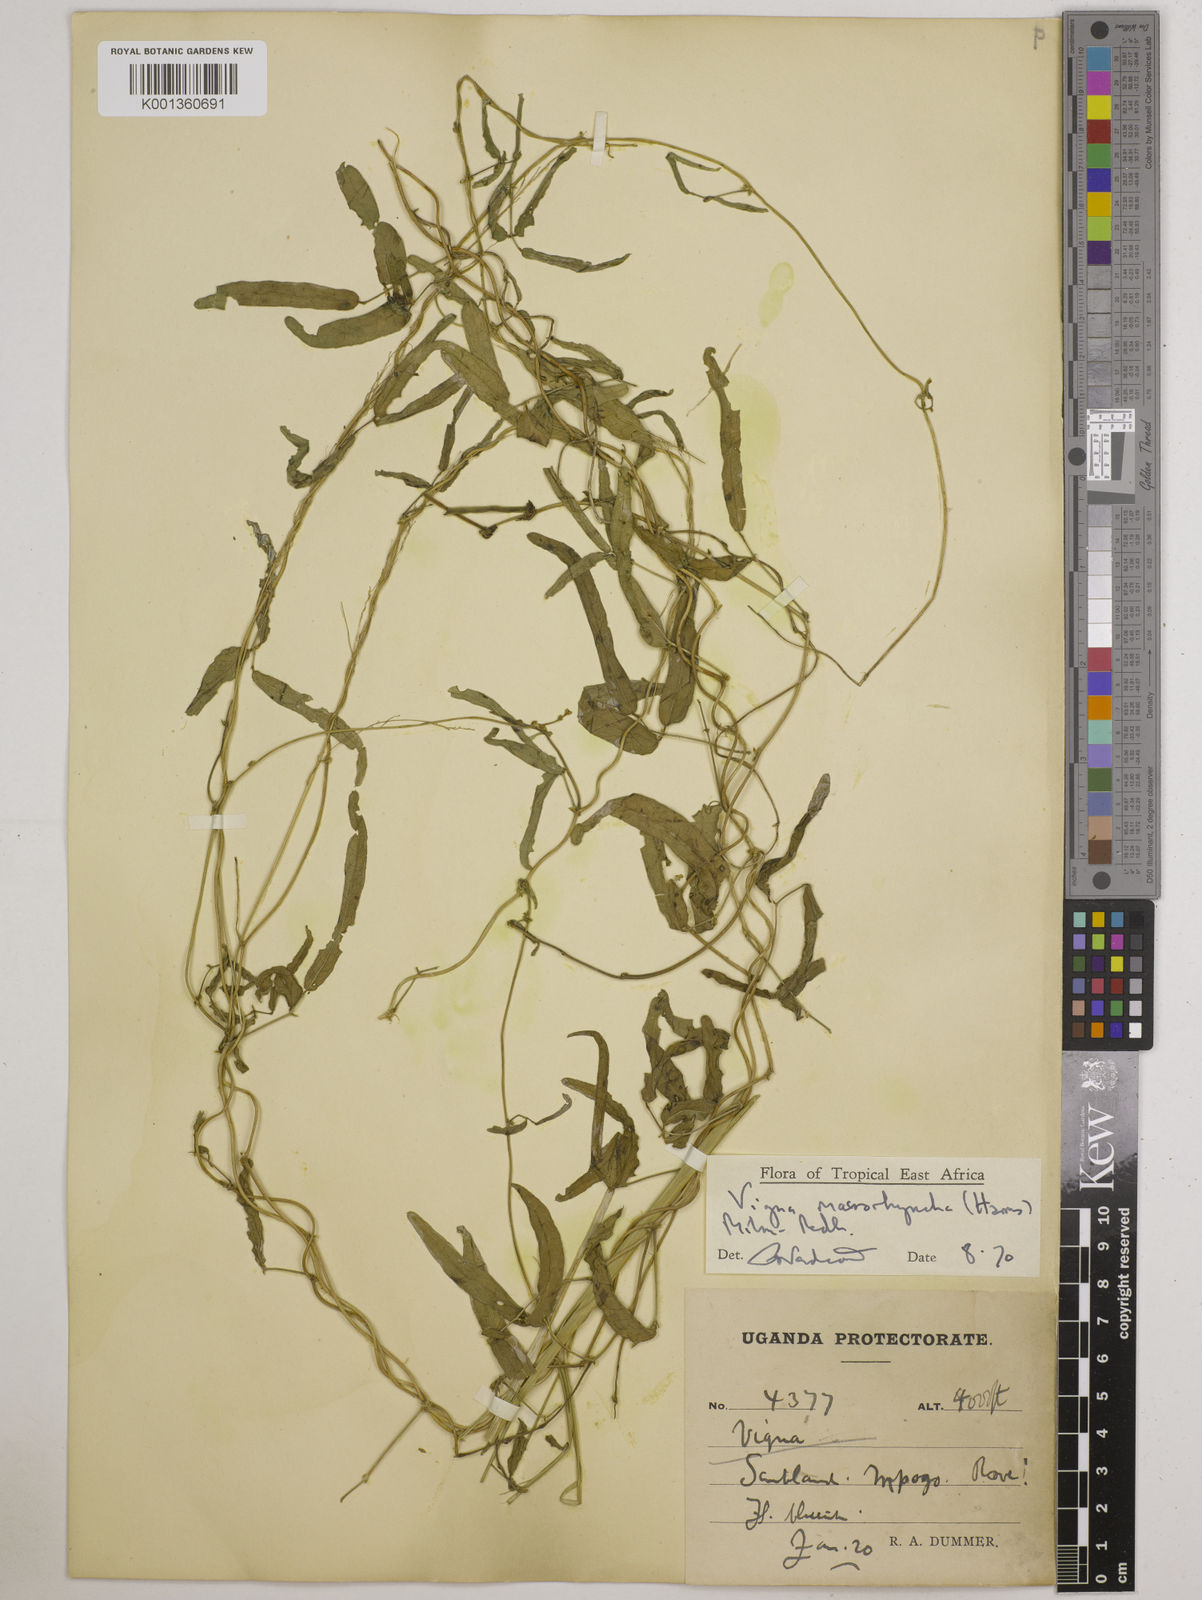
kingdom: Plantae
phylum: Tracheophyta
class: Magnoliopsida
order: Fabales
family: Fabaceae
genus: Wajira
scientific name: Wajira grahamiana
